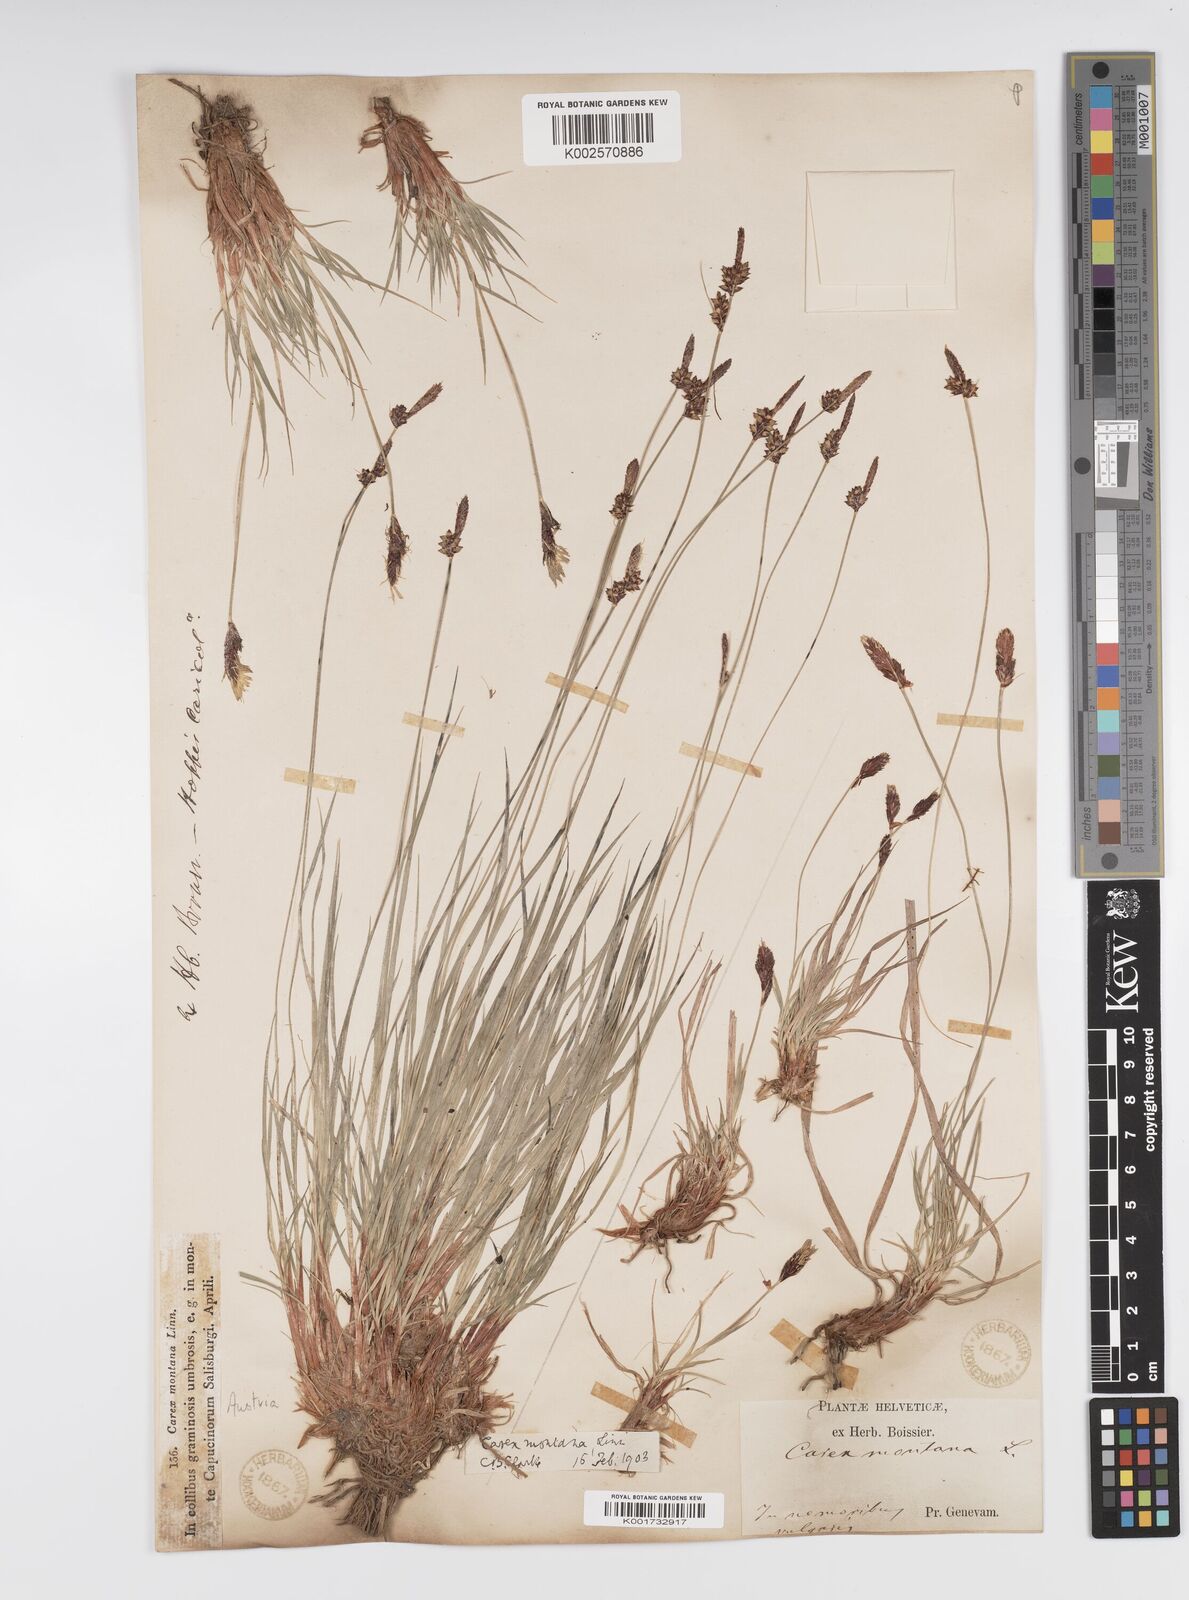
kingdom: Plantae
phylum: Tracheophyta
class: Liliopsida
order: Poales
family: Cyperaceae
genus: Carex
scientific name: Carex montana
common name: Soft-leaved sedge
